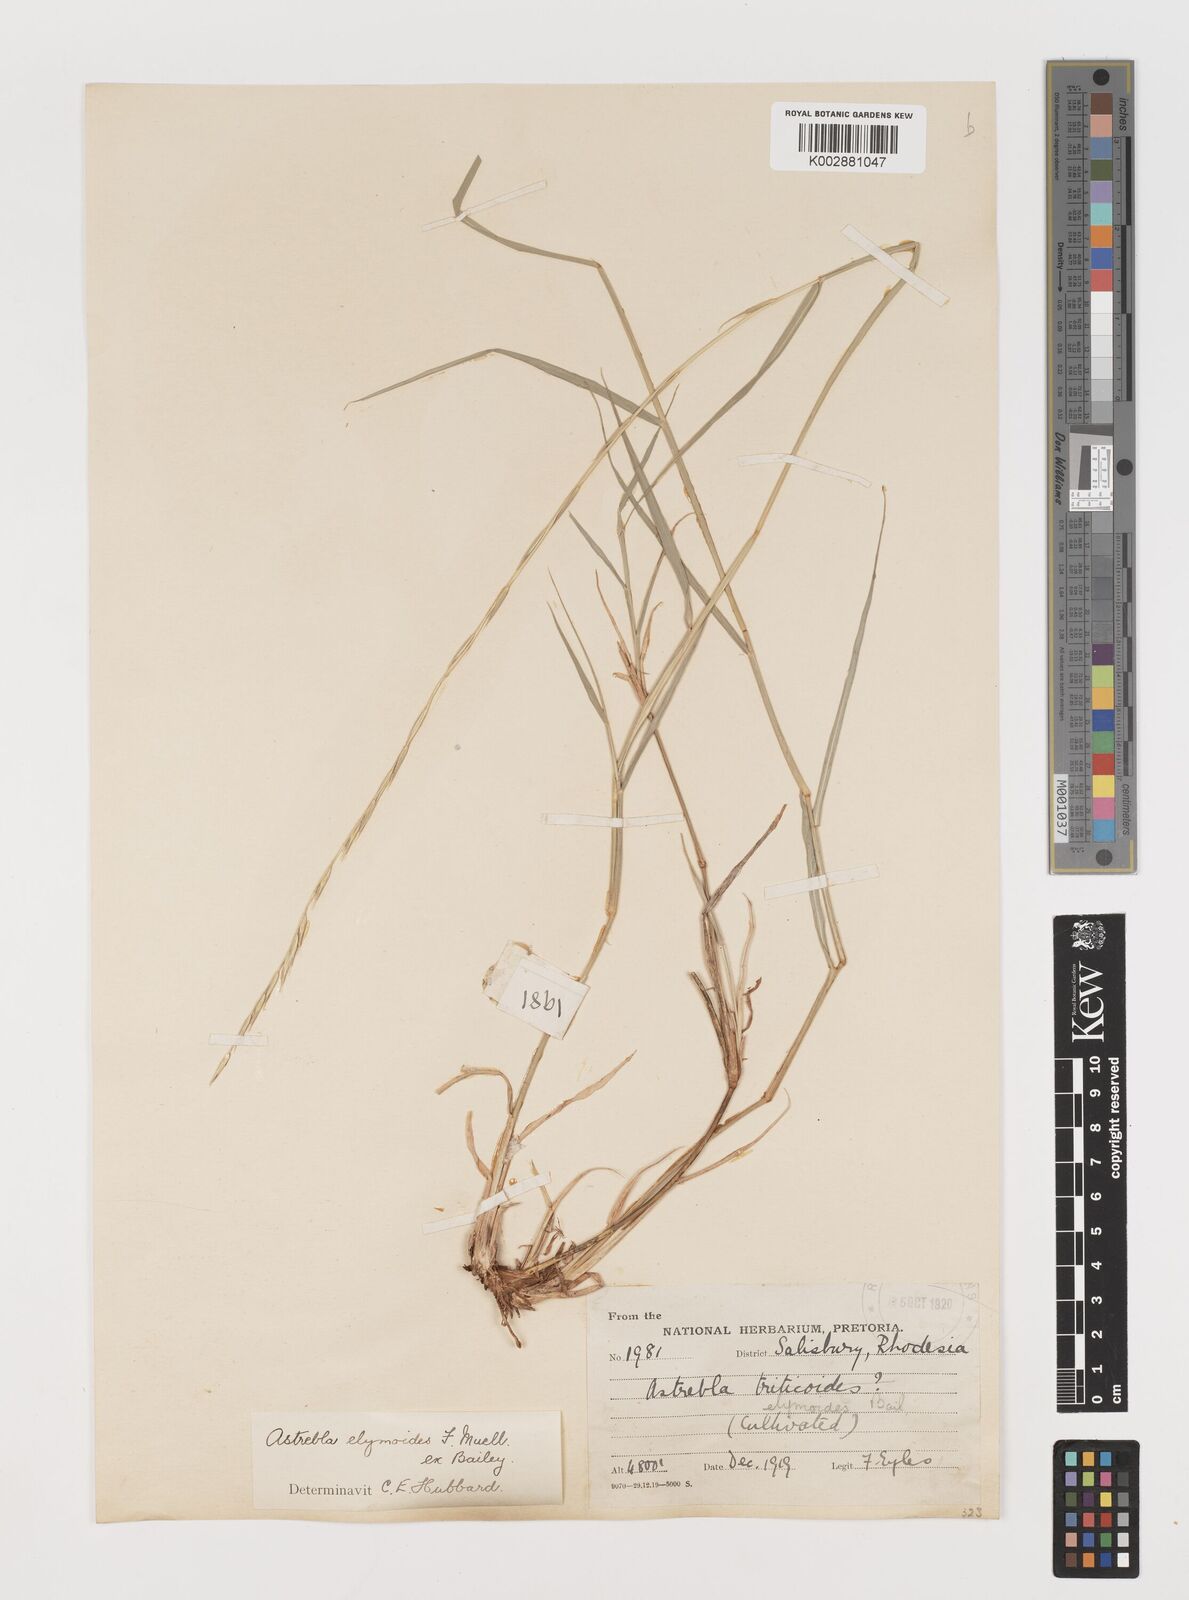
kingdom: Plantae
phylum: Tracheophyta
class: Liliopsida
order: Poales
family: Poaceae
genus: Astrebla
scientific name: Astrebla elymoides
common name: Hoop mitchell grass
